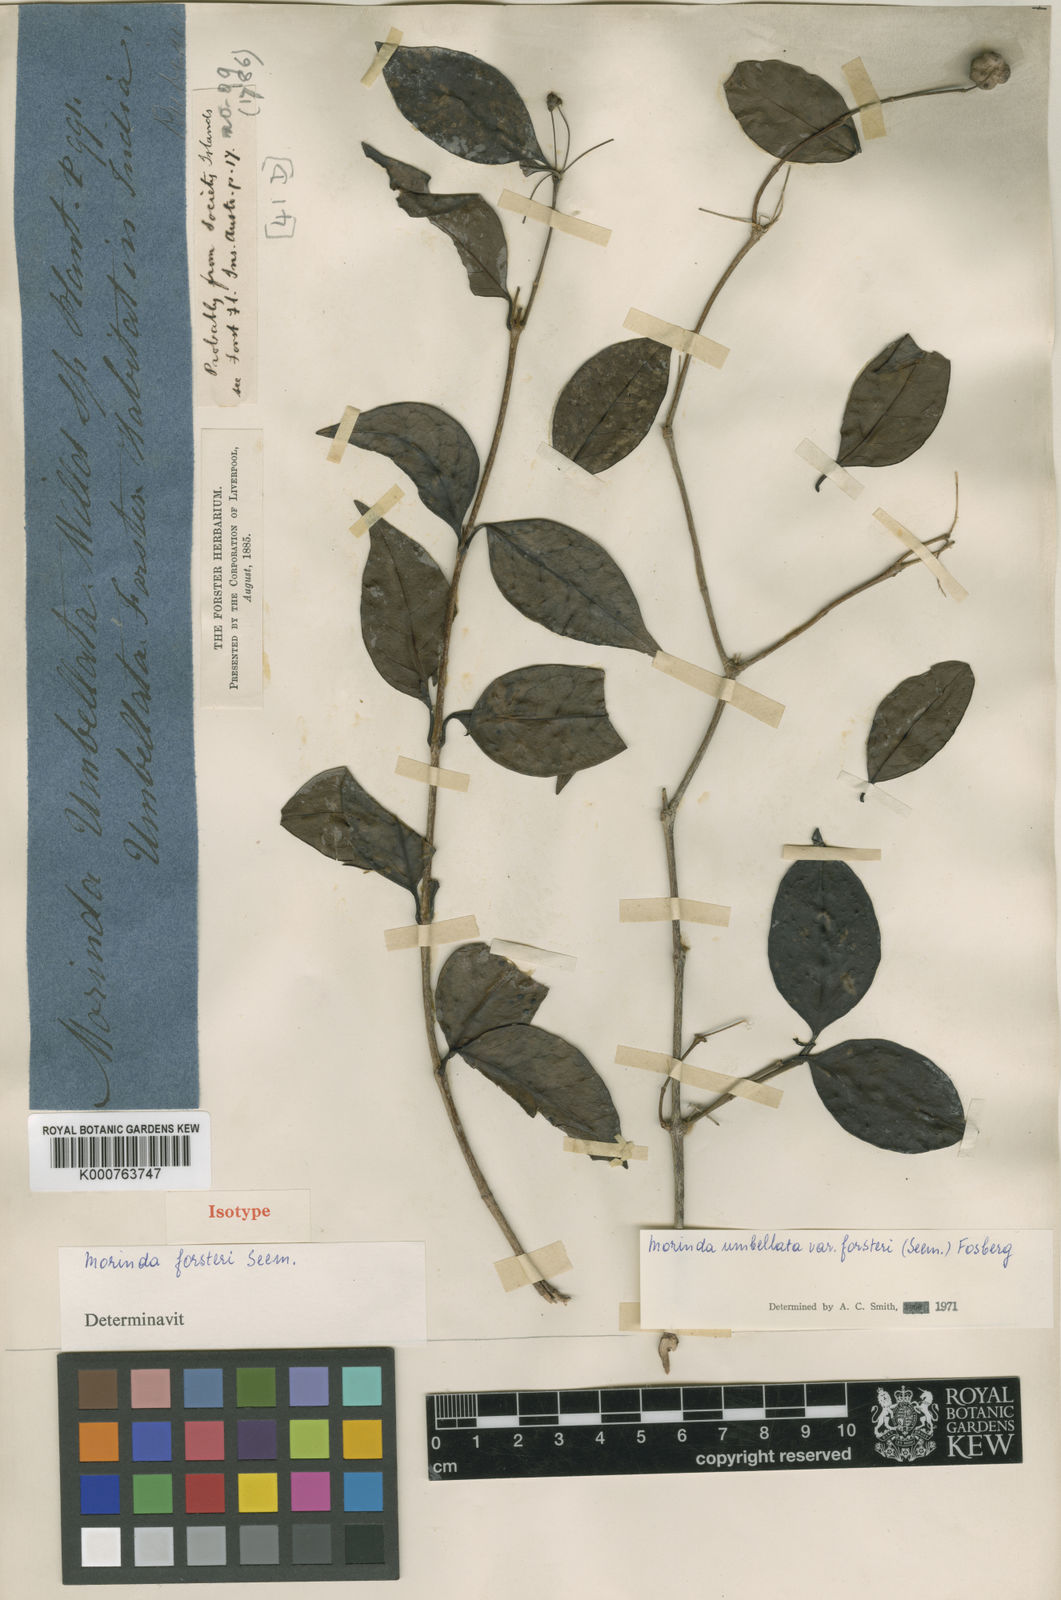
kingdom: Plantae
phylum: Tracheophyta
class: Magnoliopsida
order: Gentianales
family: Rubiaceae
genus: Gynochthodes
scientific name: Gynochthodes umbellata
